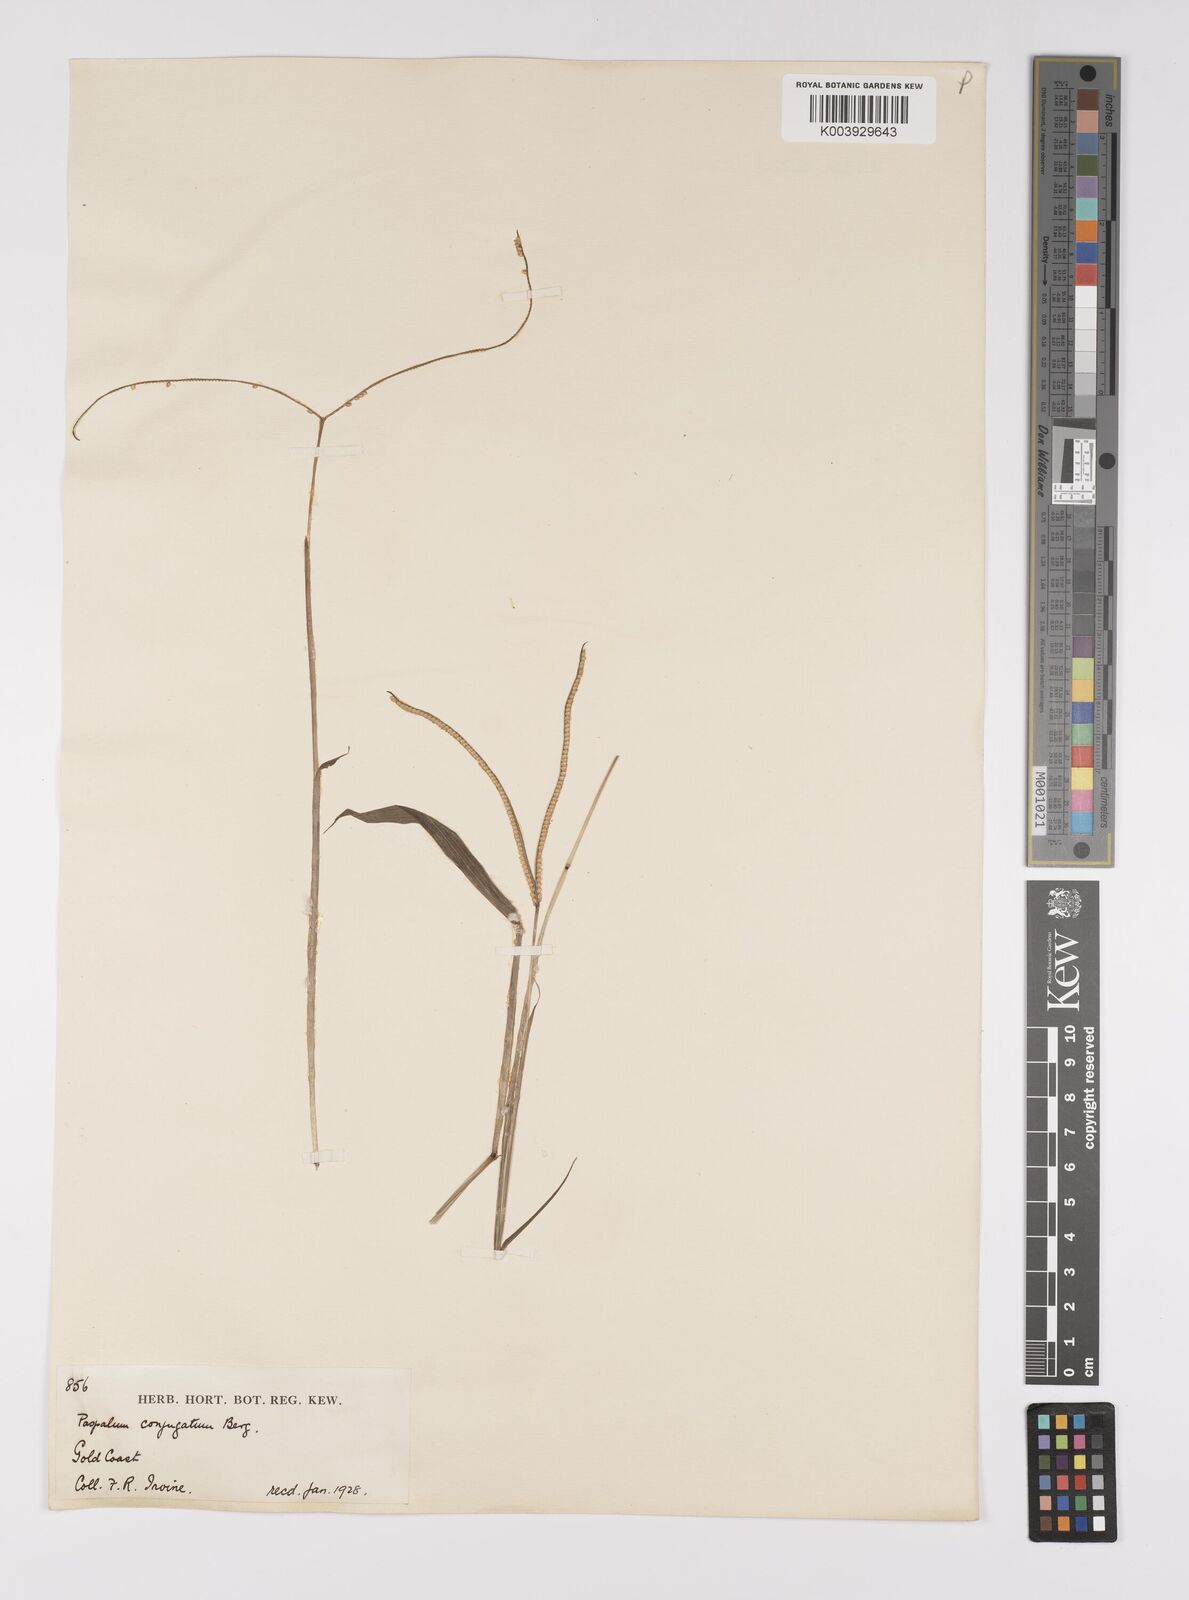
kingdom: Plantae
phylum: Tracheophyta
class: Liliopsida
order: Poales
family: Poaceae
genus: Paspalum
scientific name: Paspalum conjugatum
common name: Hilograss
